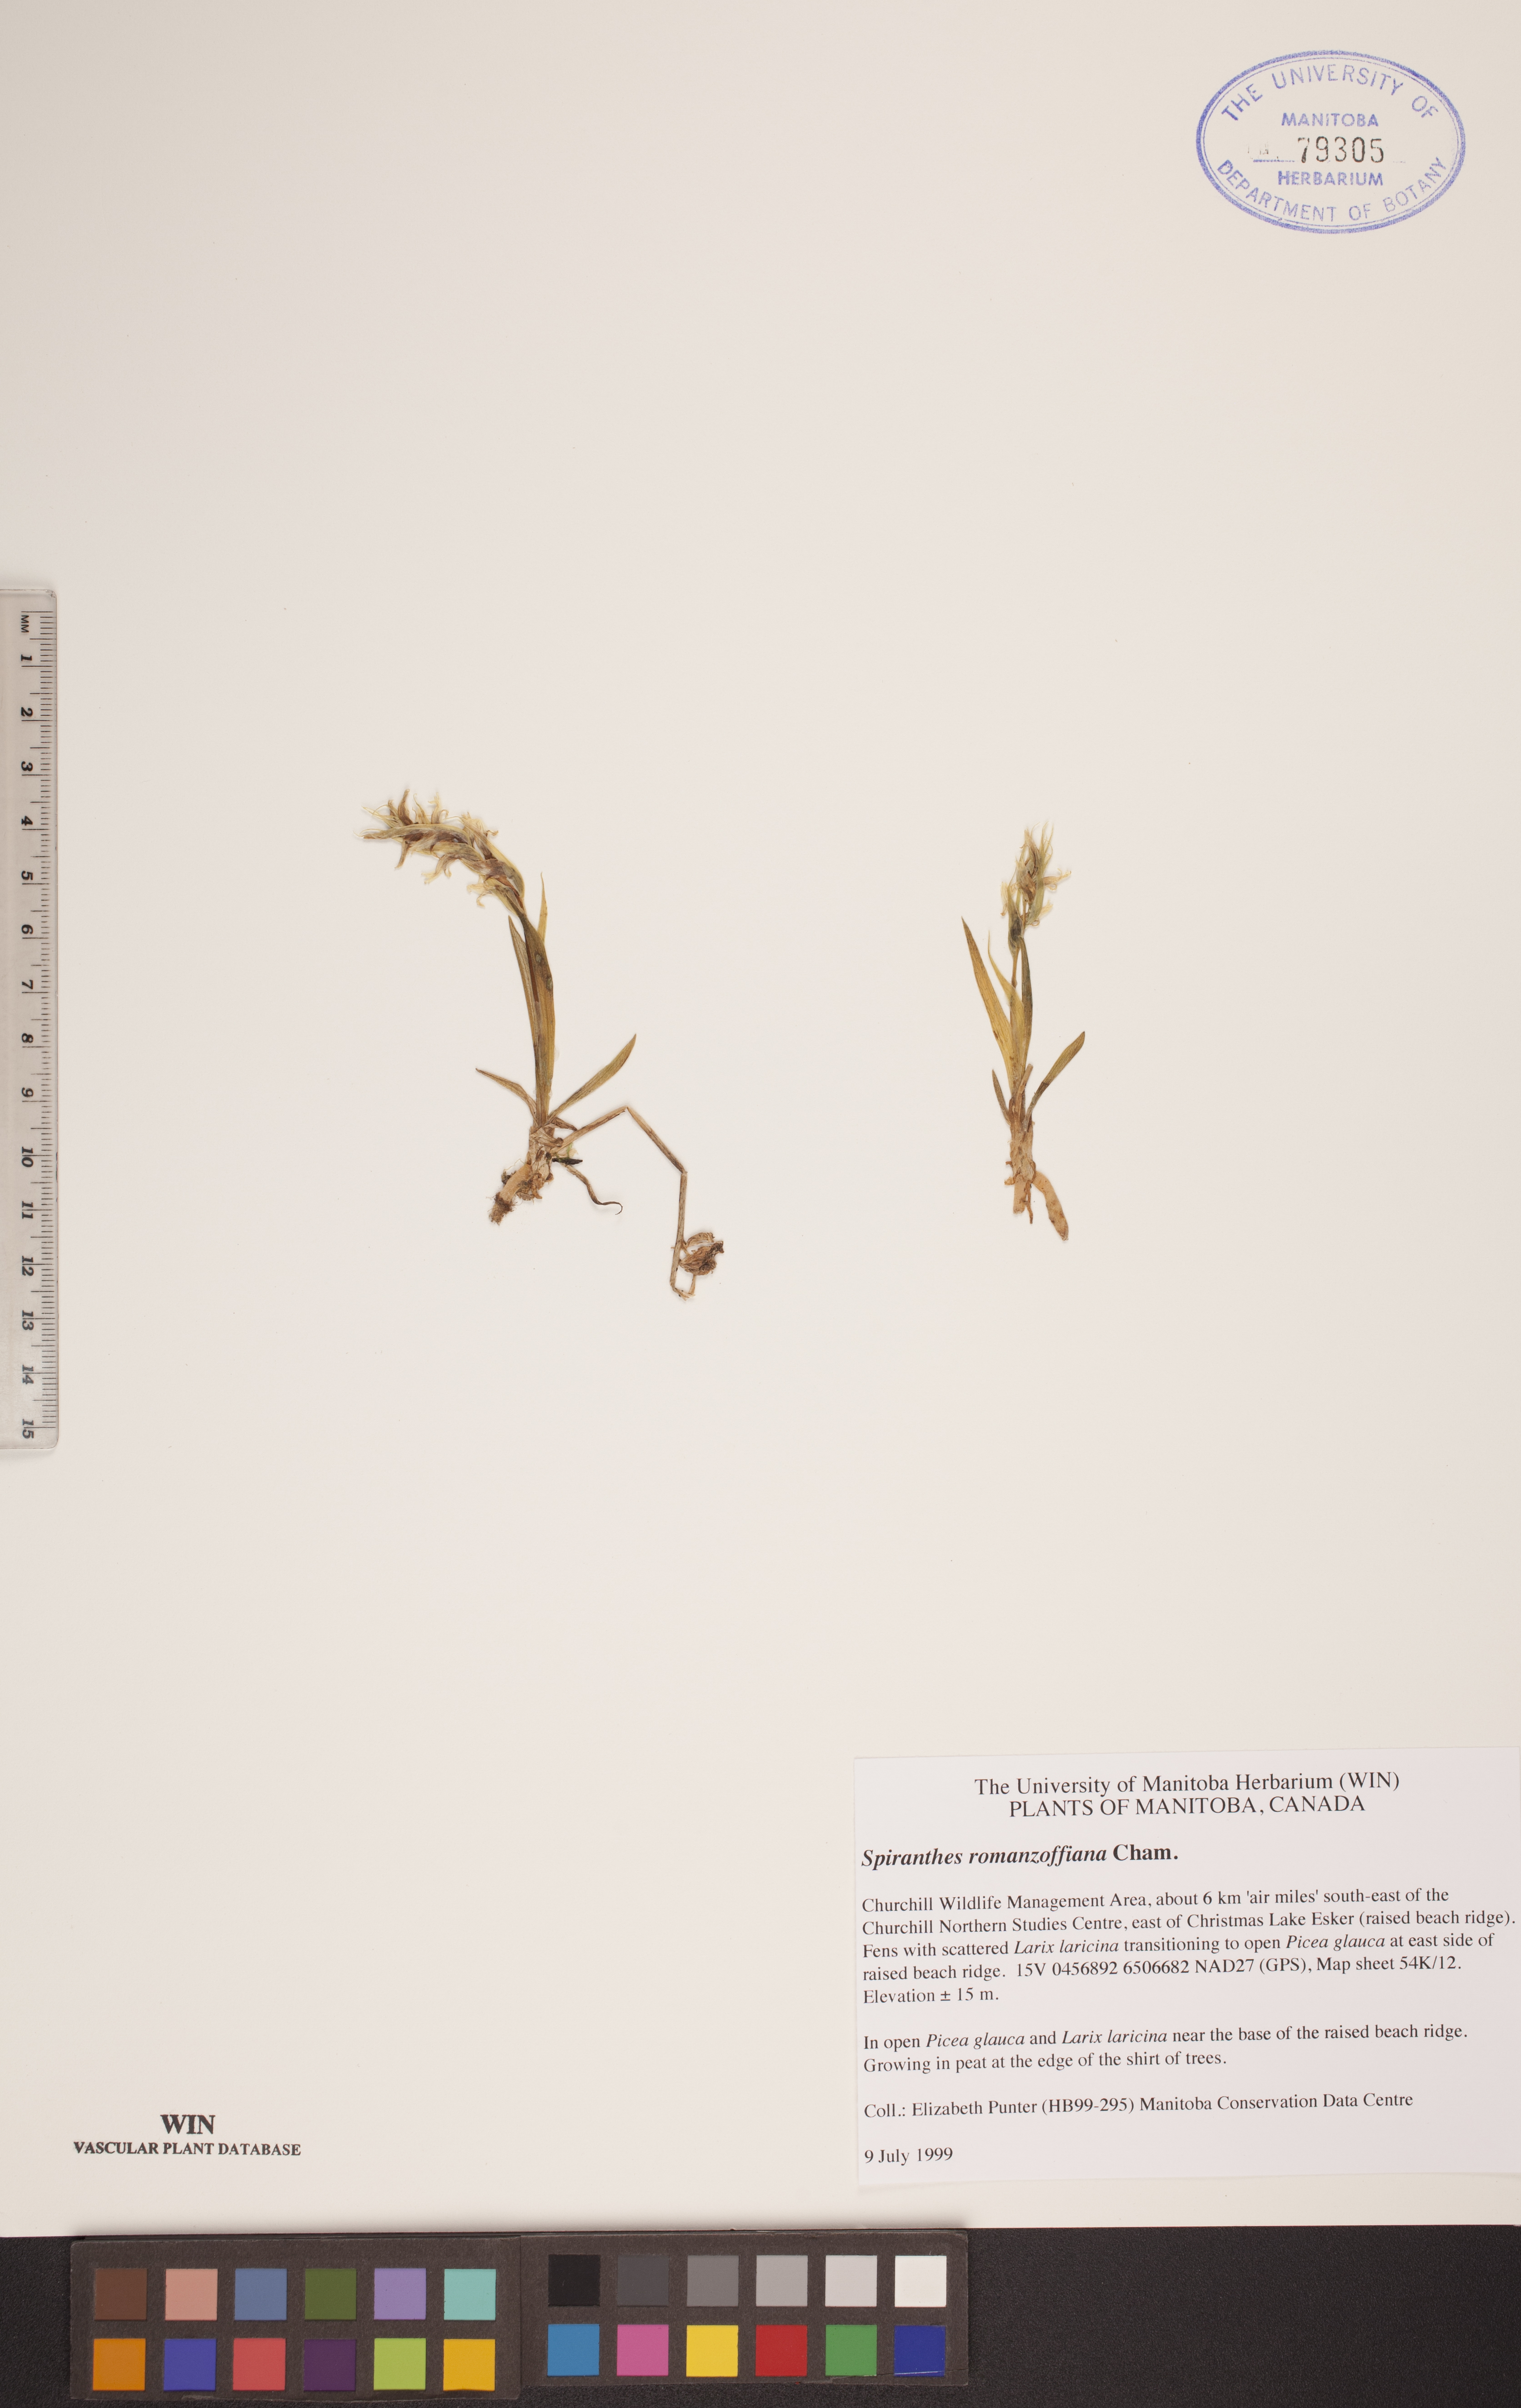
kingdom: Plantae
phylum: Tracheophyta
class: Liliopsida
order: Asparagales
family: Orchidaceae
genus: Spiranthes
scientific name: Spiranthes romanzoffiana
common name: Irish lady's-tresses
